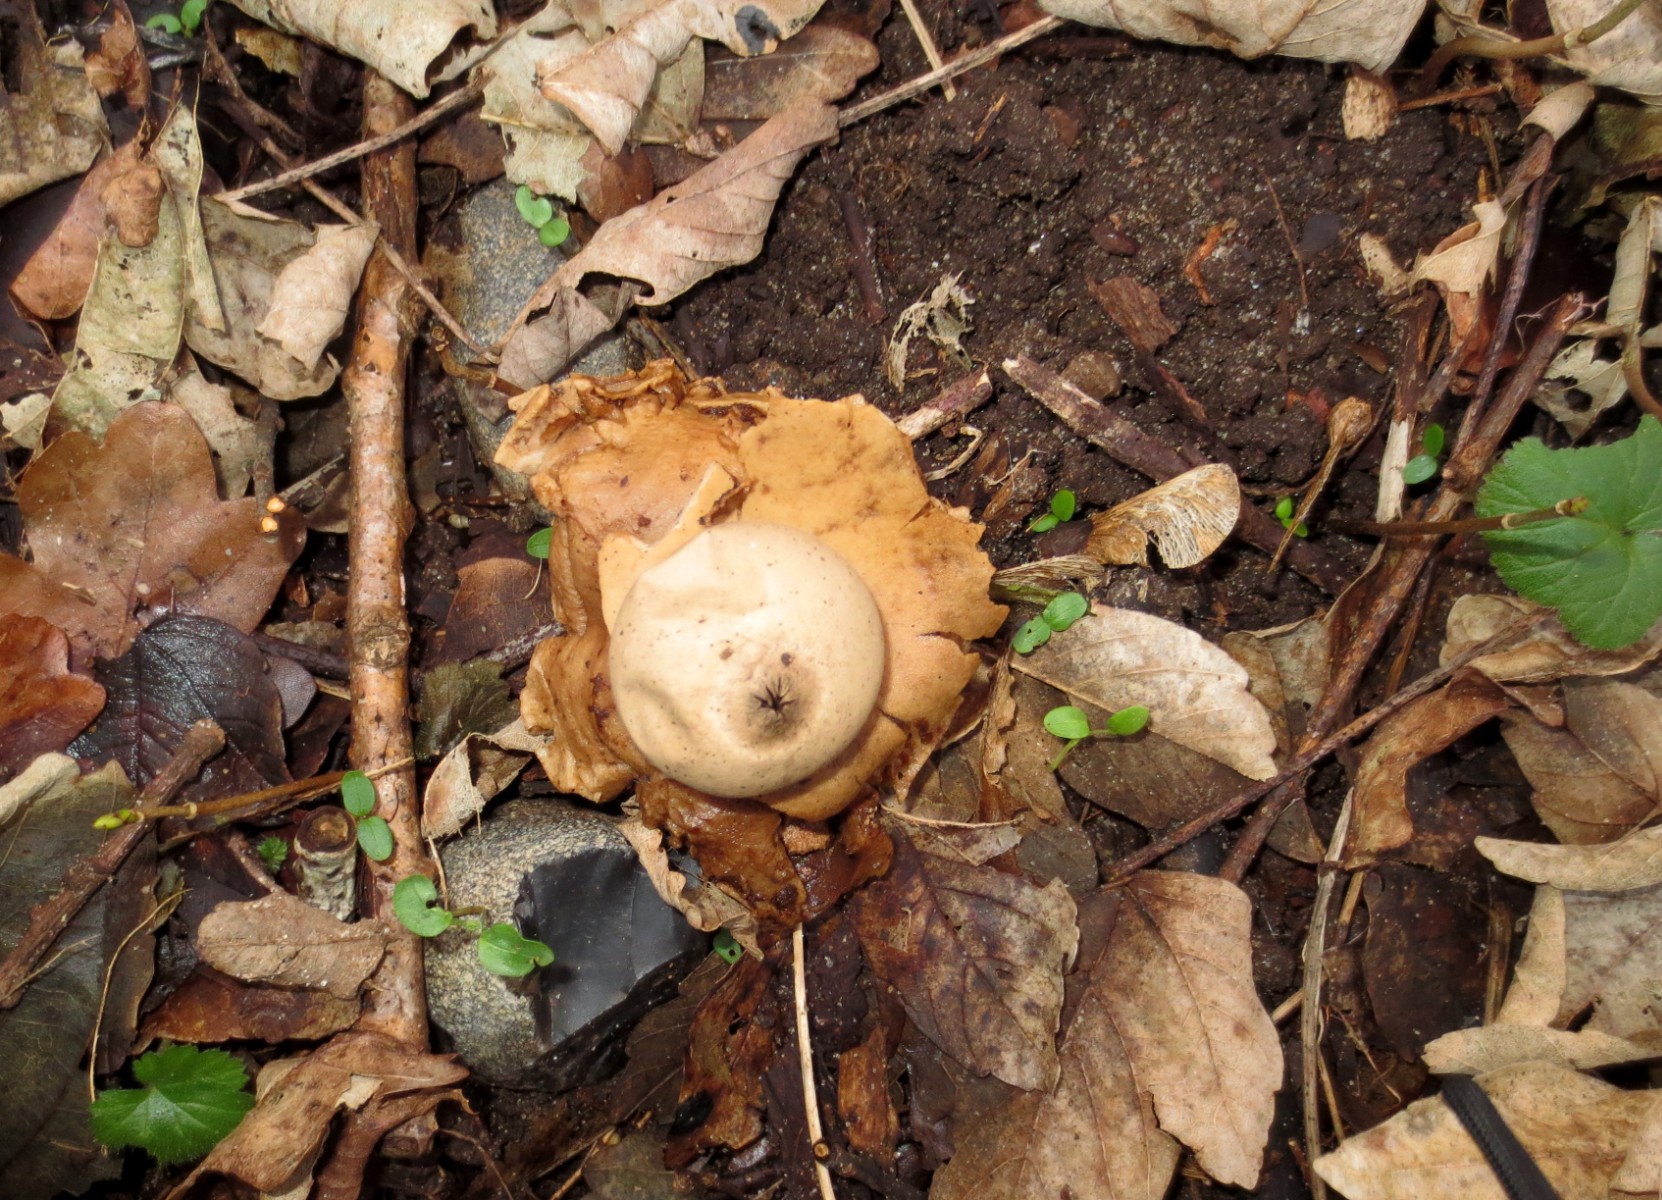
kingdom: Fungi
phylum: Basidiomycota
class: Agaricomycetes
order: Geastrales
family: Geastraceae
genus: Geastrum
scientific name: Geastrum michelianum
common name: kødet stjernebold
